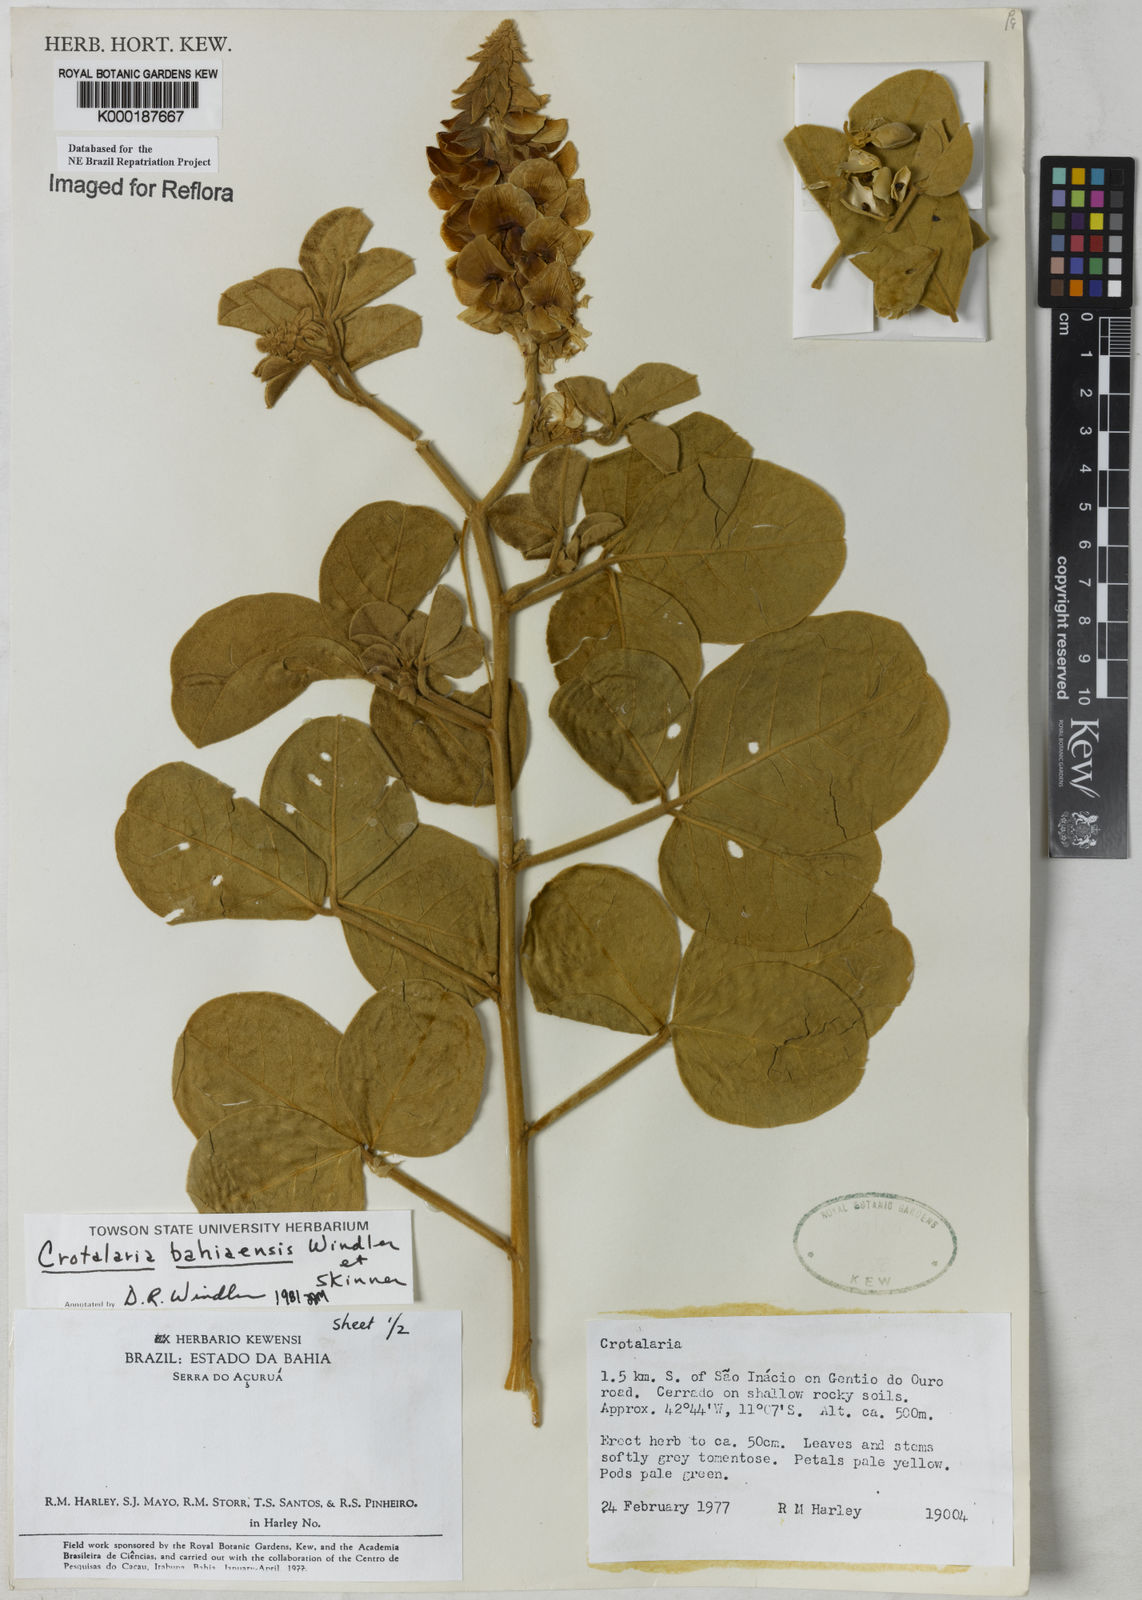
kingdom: Plantae
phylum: Tracheophyta
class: Magnoliopsida
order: Fabales
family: Fabaceae
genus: Crotalaria
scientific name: Crotalaria
